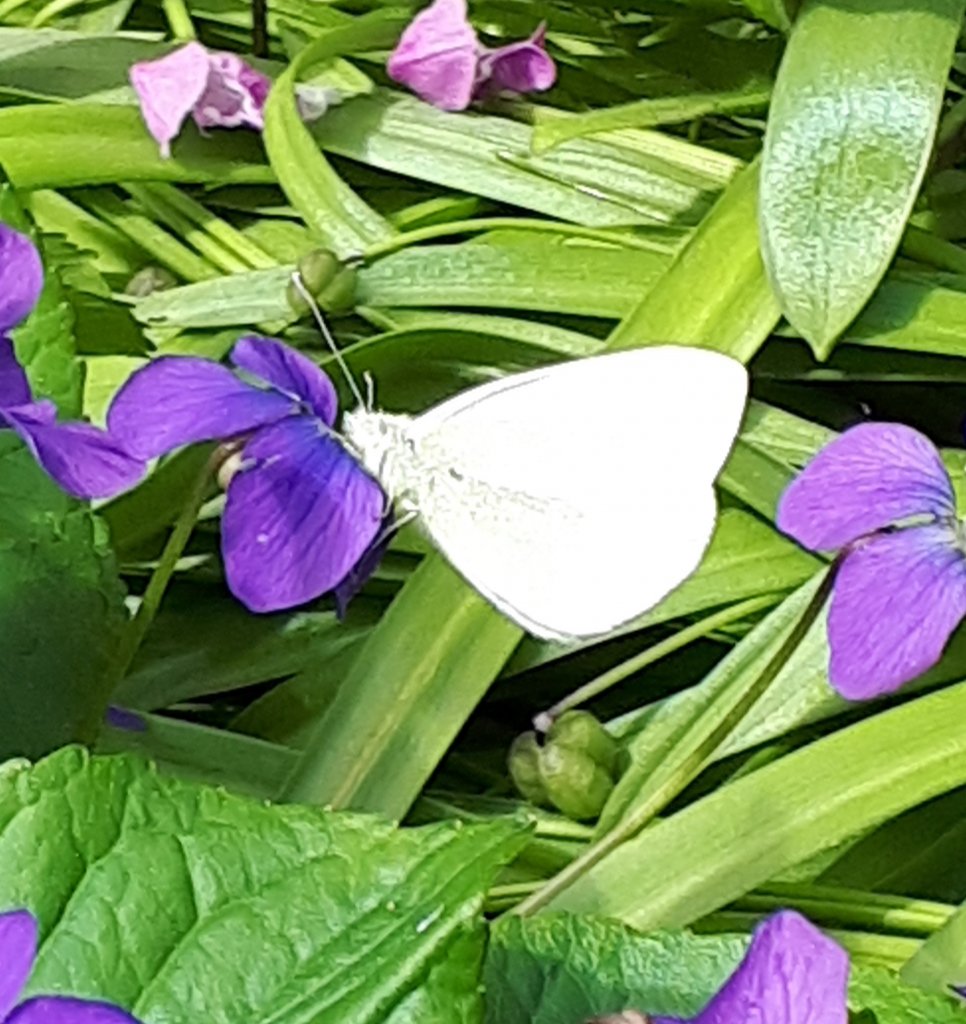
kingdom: Animalia
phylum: Arthropoda
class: Insecta
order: Lepidoptera
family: Pieridae
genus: Pieris
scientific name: Pieris
